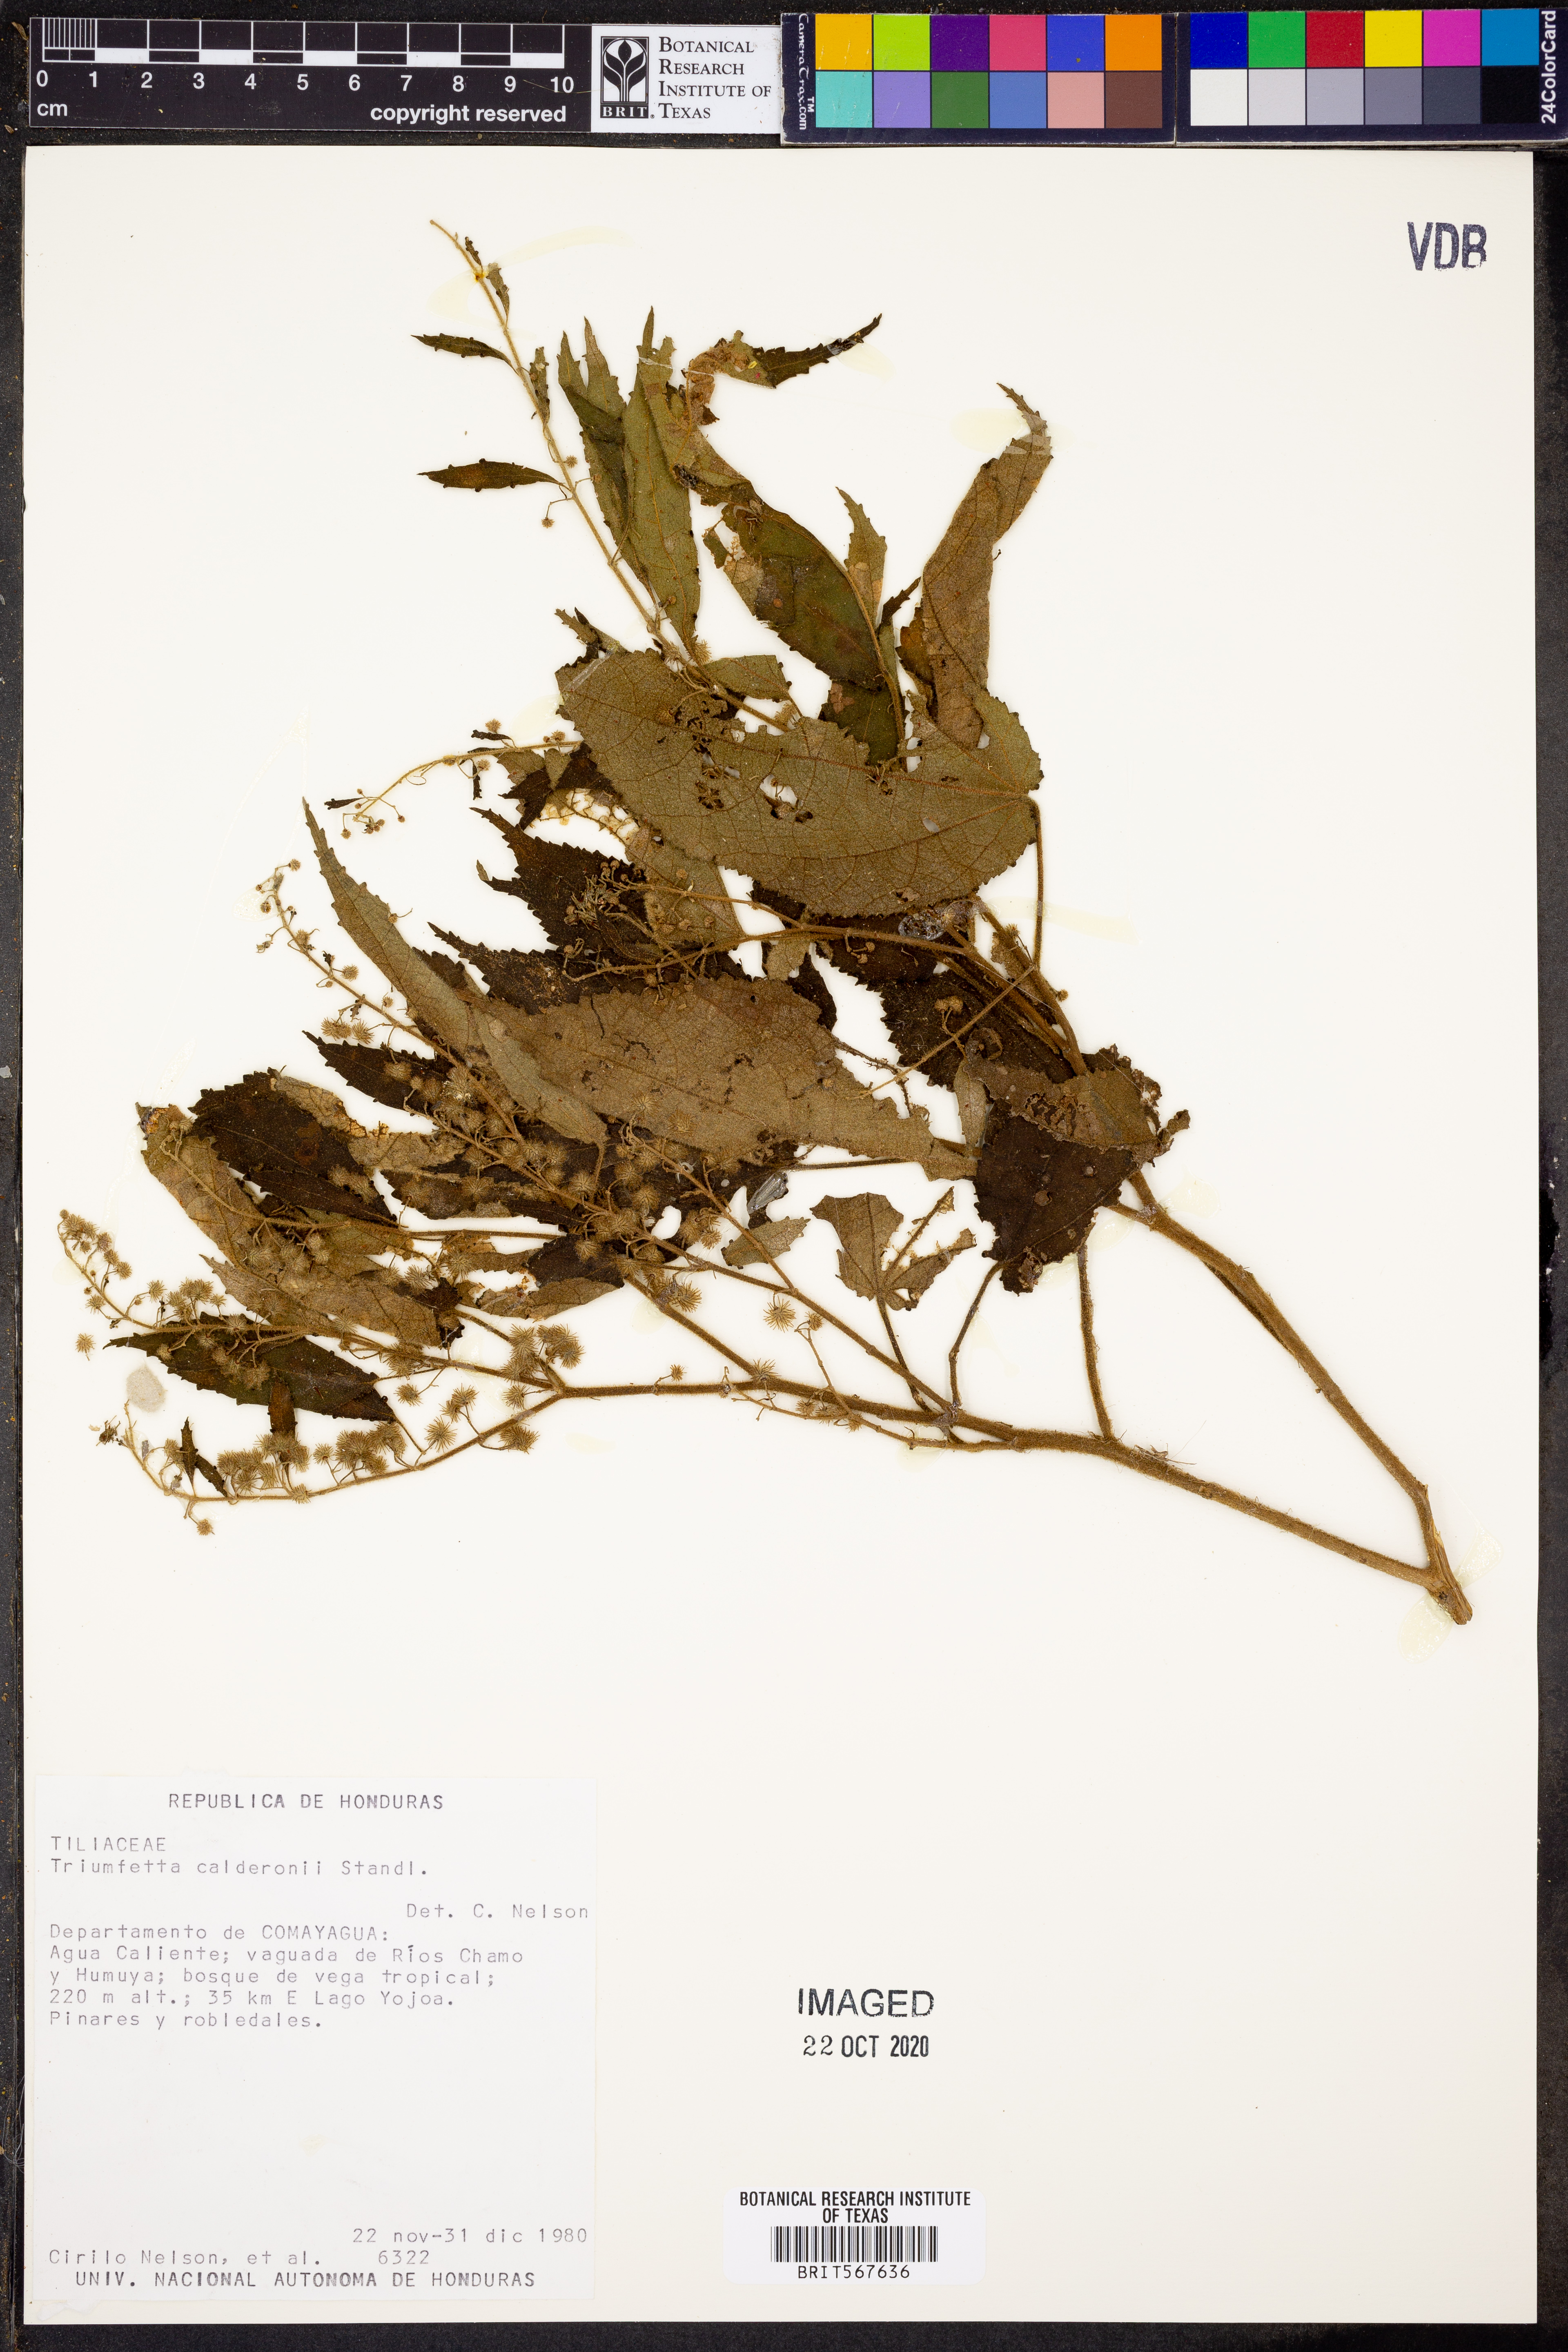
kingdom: Plantae
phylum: Tracheophyta
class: Magnoliopsida
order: Malvales
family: Malvaceae
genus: Triumfetta
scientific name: Triumfetta calderonii
